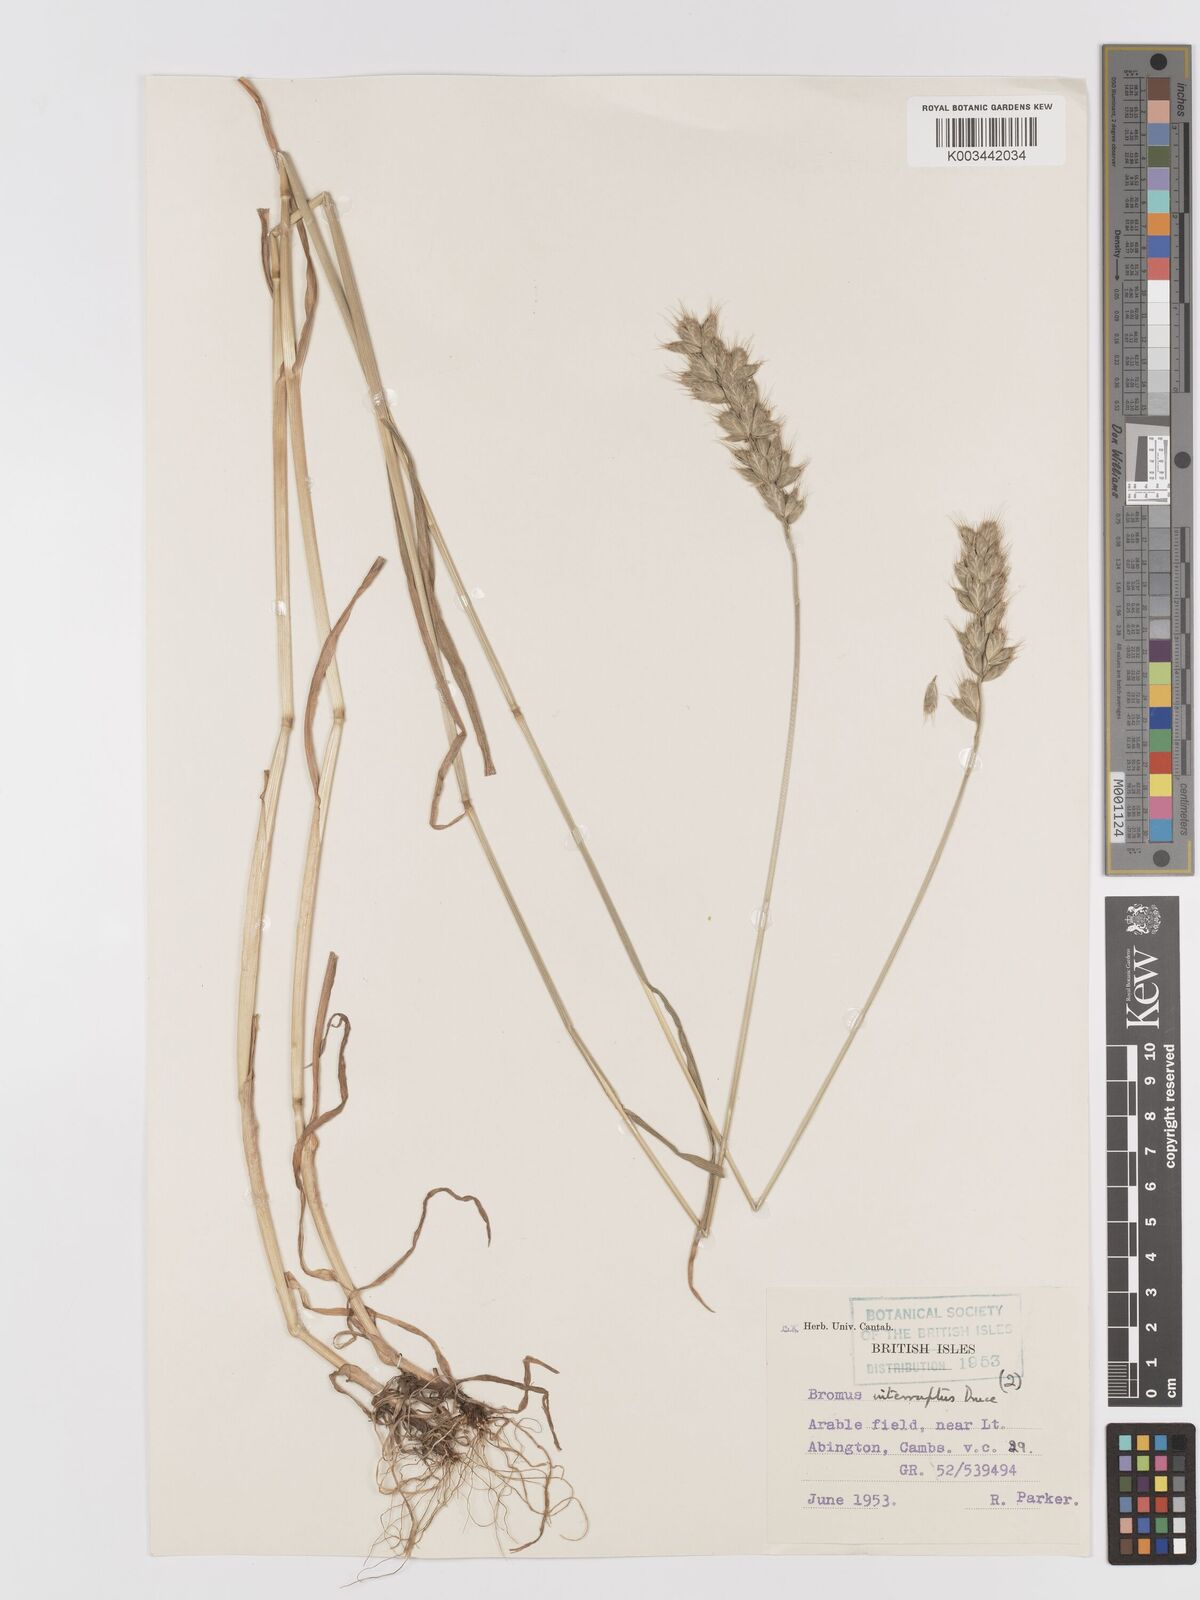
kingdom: Plantae
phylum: Tracheophyta
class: Liliopsida
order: Poales
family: Poaceae
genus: Bromus
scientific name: Bromus interruptus
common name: Interrupted brome
